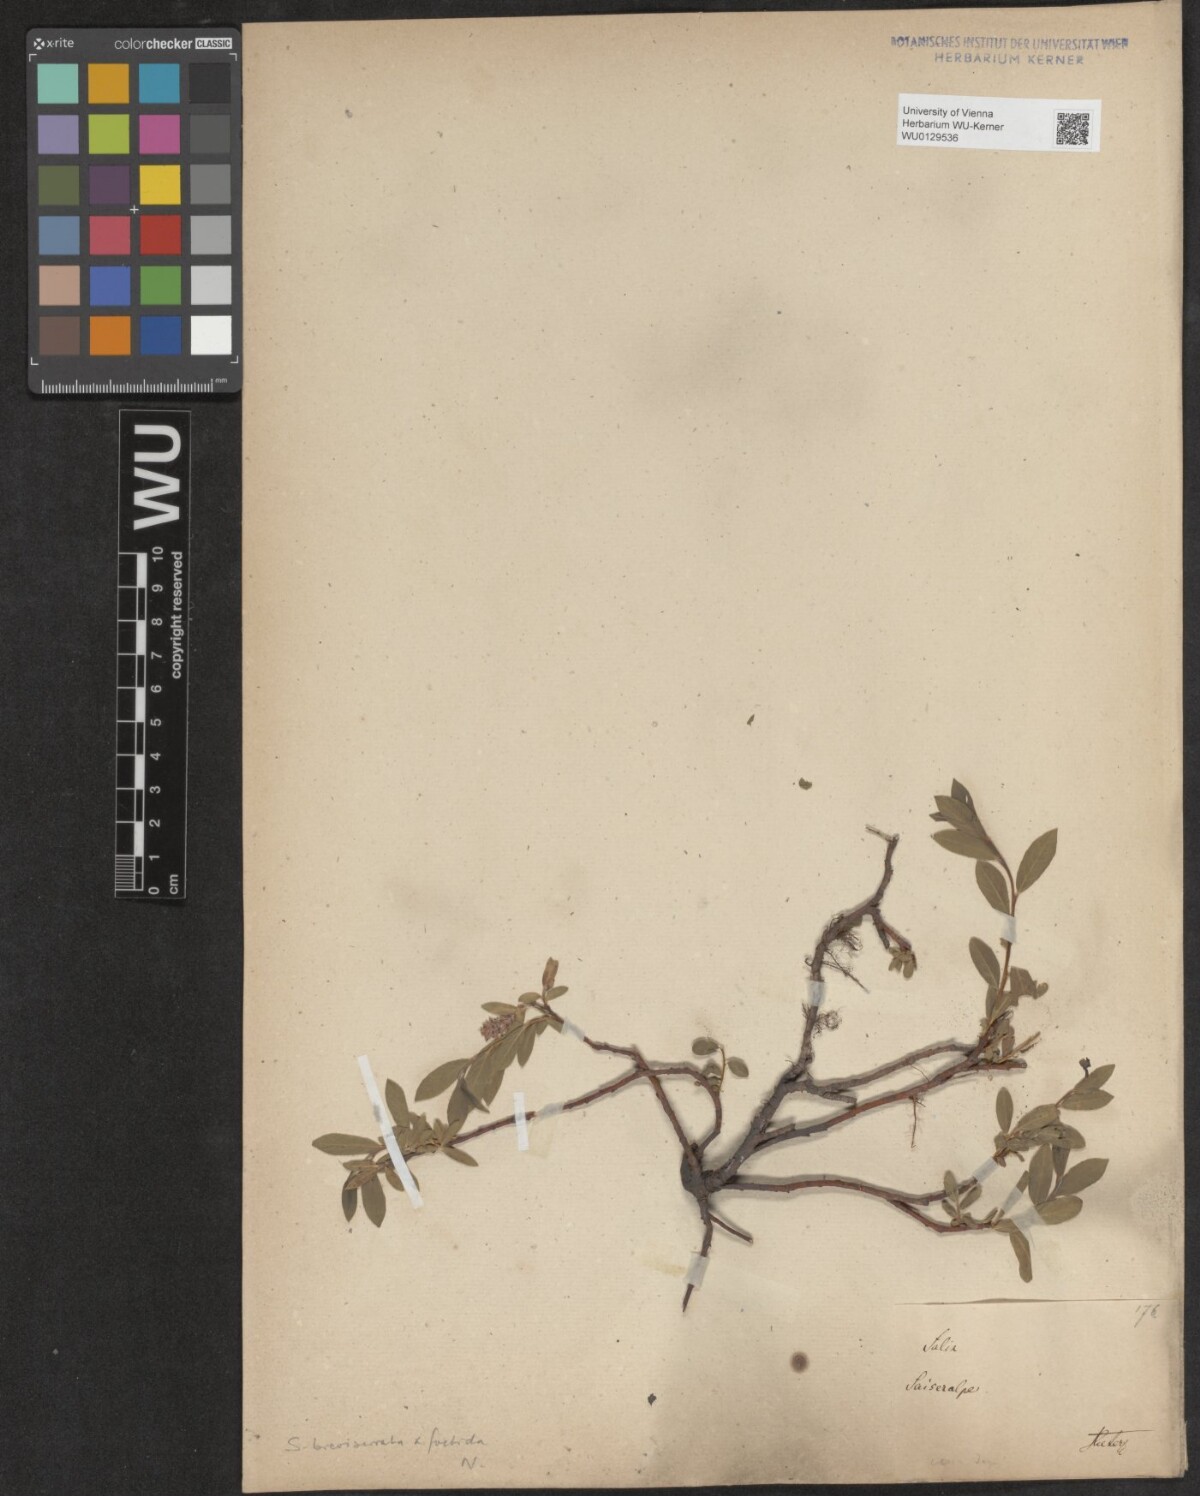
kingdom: Plantae
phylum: Tracheophyta
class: Magnoliopsida
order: Malpighiales
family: Salicaceae
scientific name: Salicaceae
